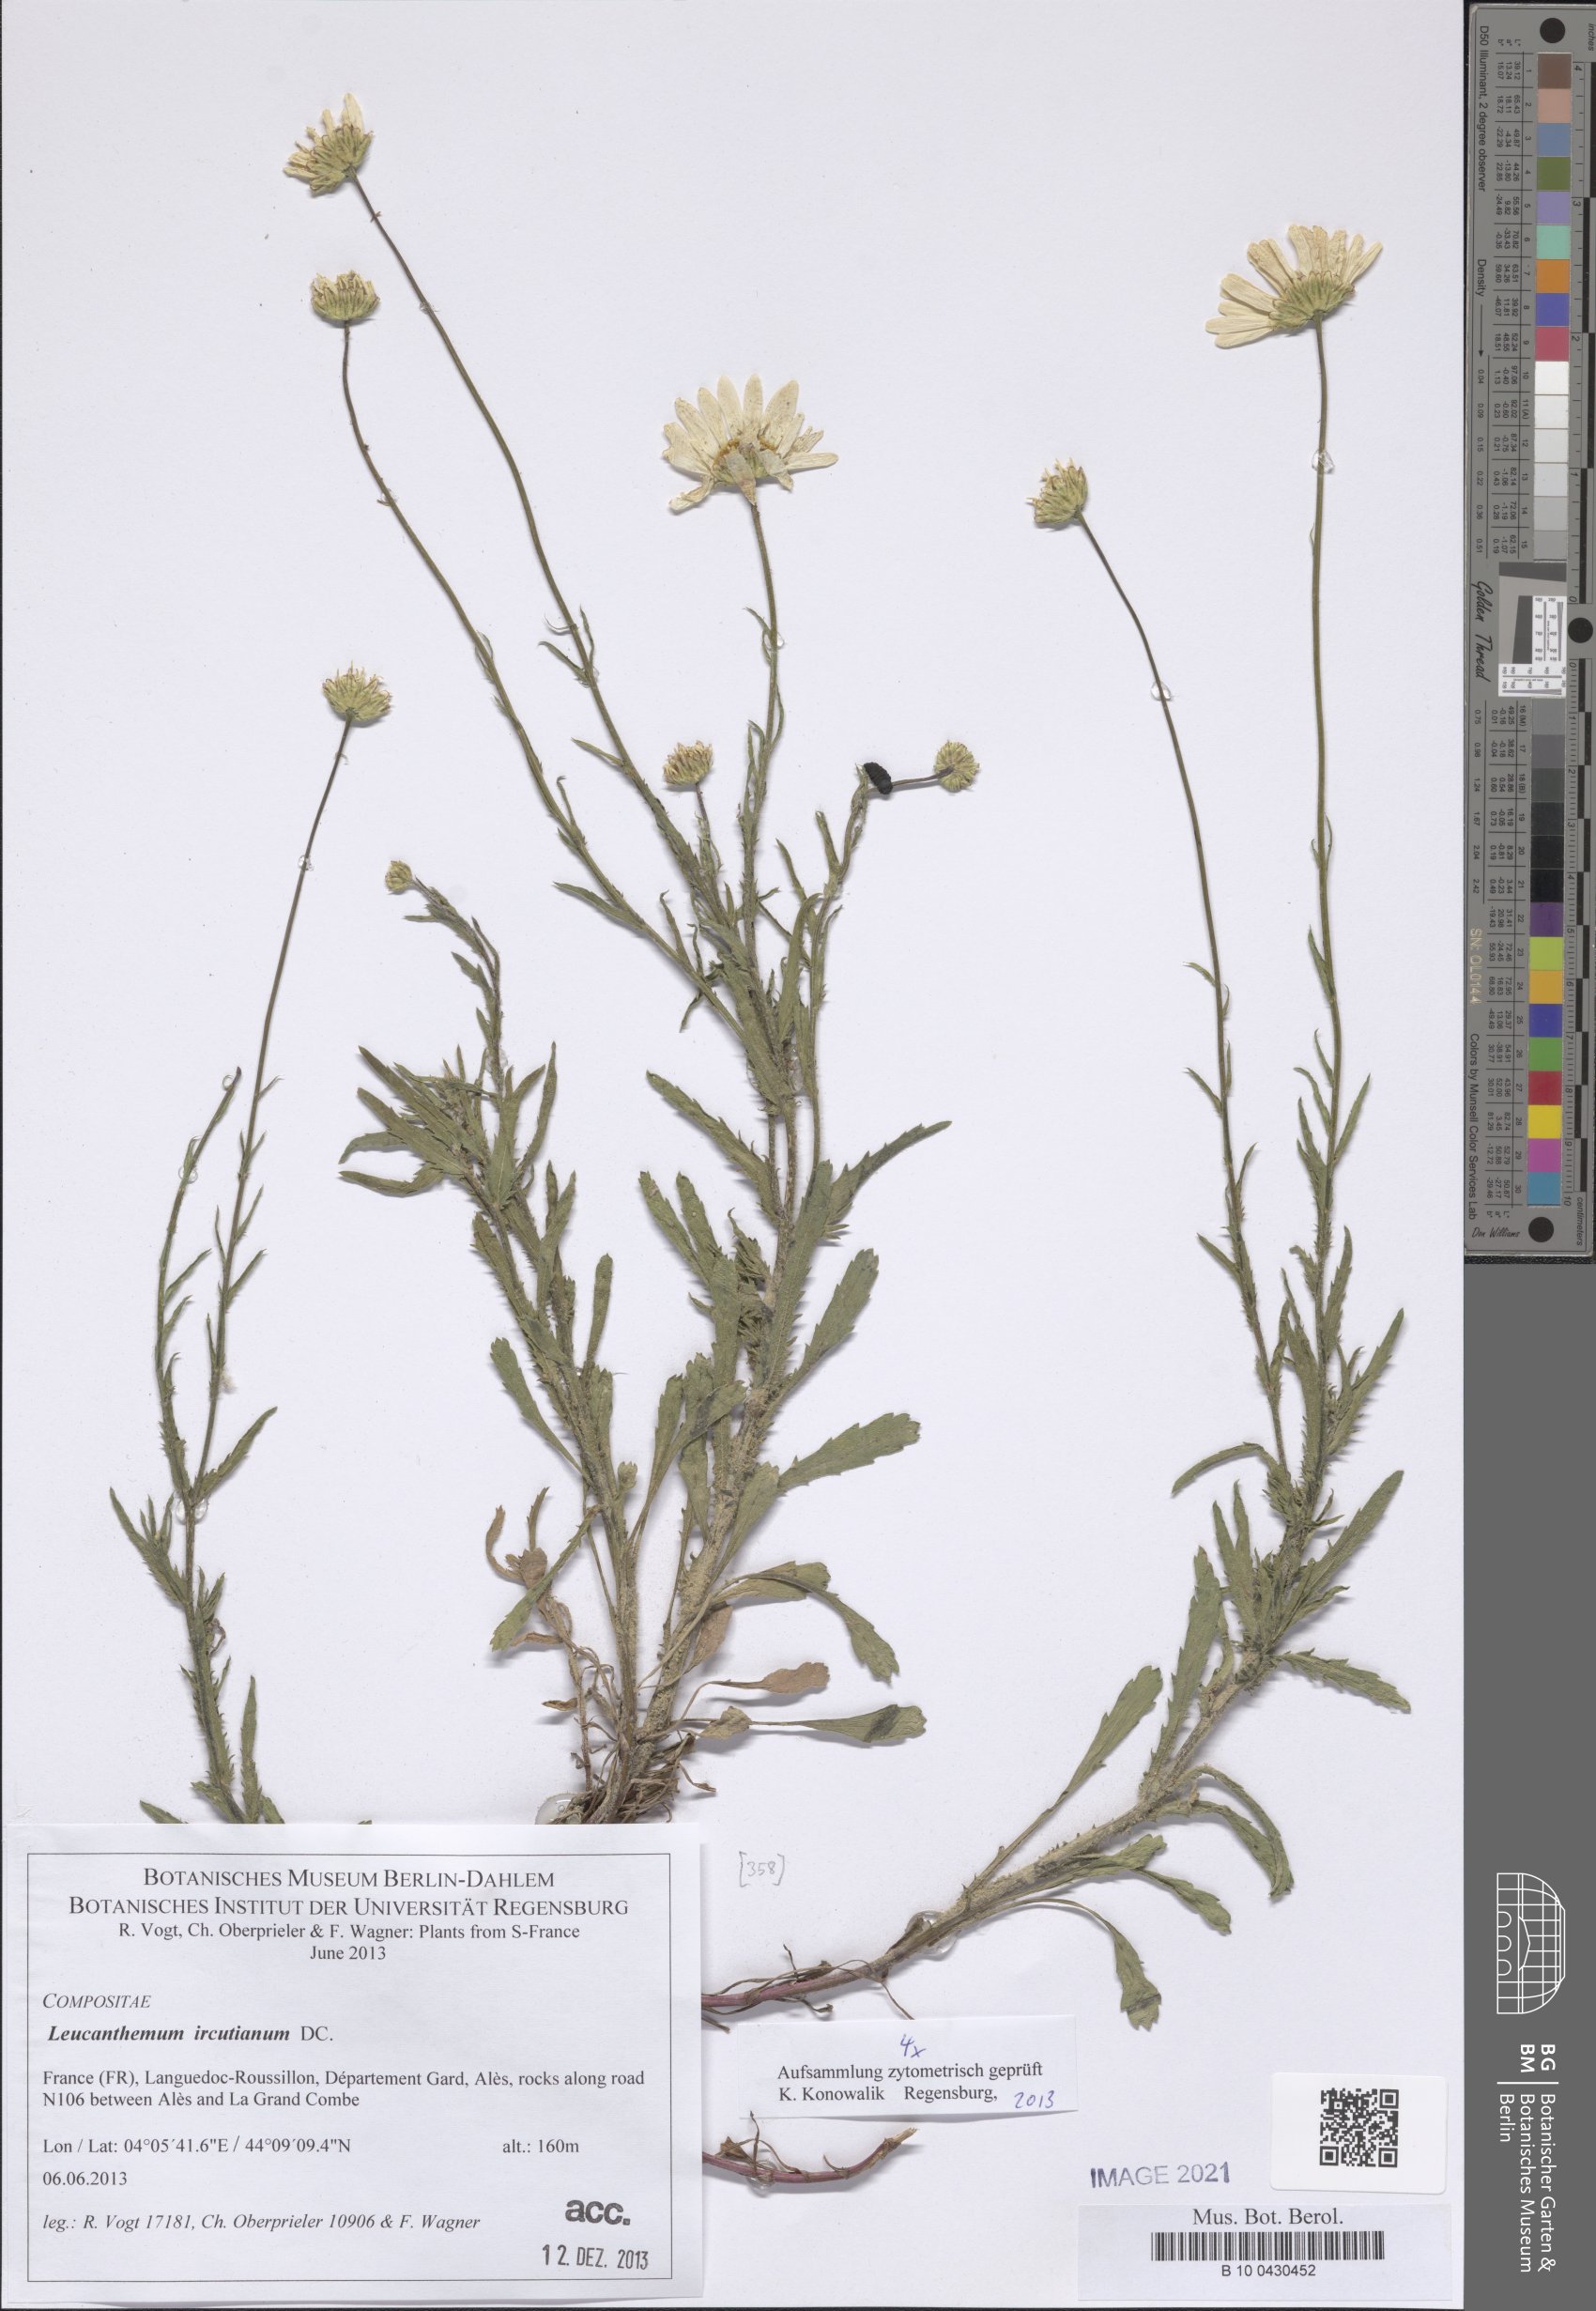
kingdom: Plantae
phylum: Tracheophyta
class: Magnoliopsida
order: Asterales
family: Asteraceae
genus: Leucanthemum
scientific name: Leucanthemum ircutianum
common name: Daisy
